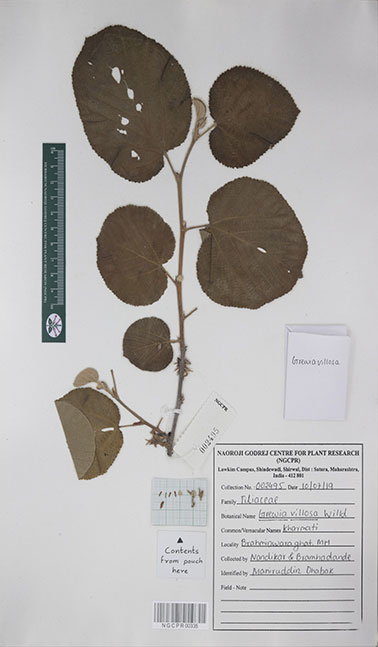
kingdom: Plantae
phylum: Tracheophyta
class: Magnoliopsida
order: Malvales
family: Malvaceae
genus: Grewia
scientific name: Grewia villosa
